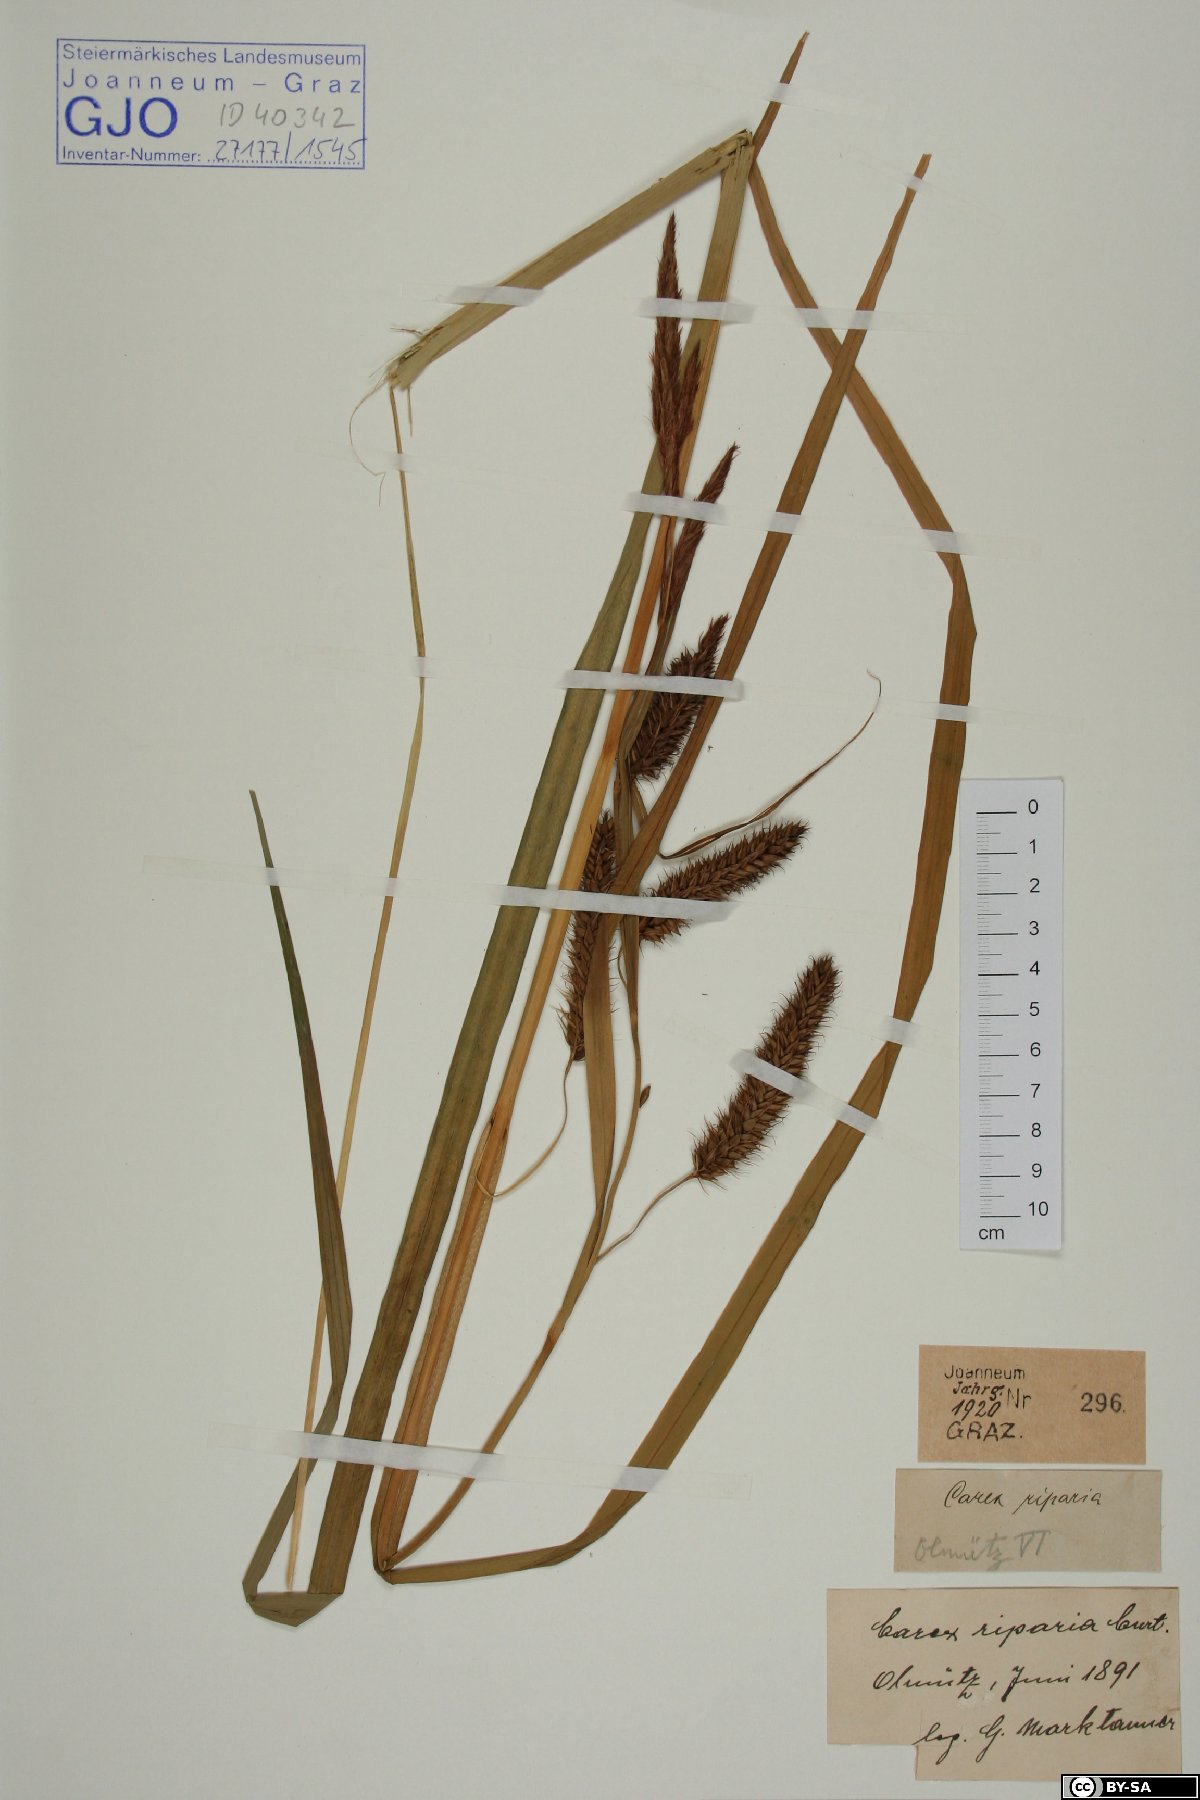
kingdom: Plantae
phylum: Tracheophyta
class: Liliopsida
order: Poales
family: Cyperaceae
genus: Carex
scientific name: Carex riparia
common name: Greater pond-sedge
